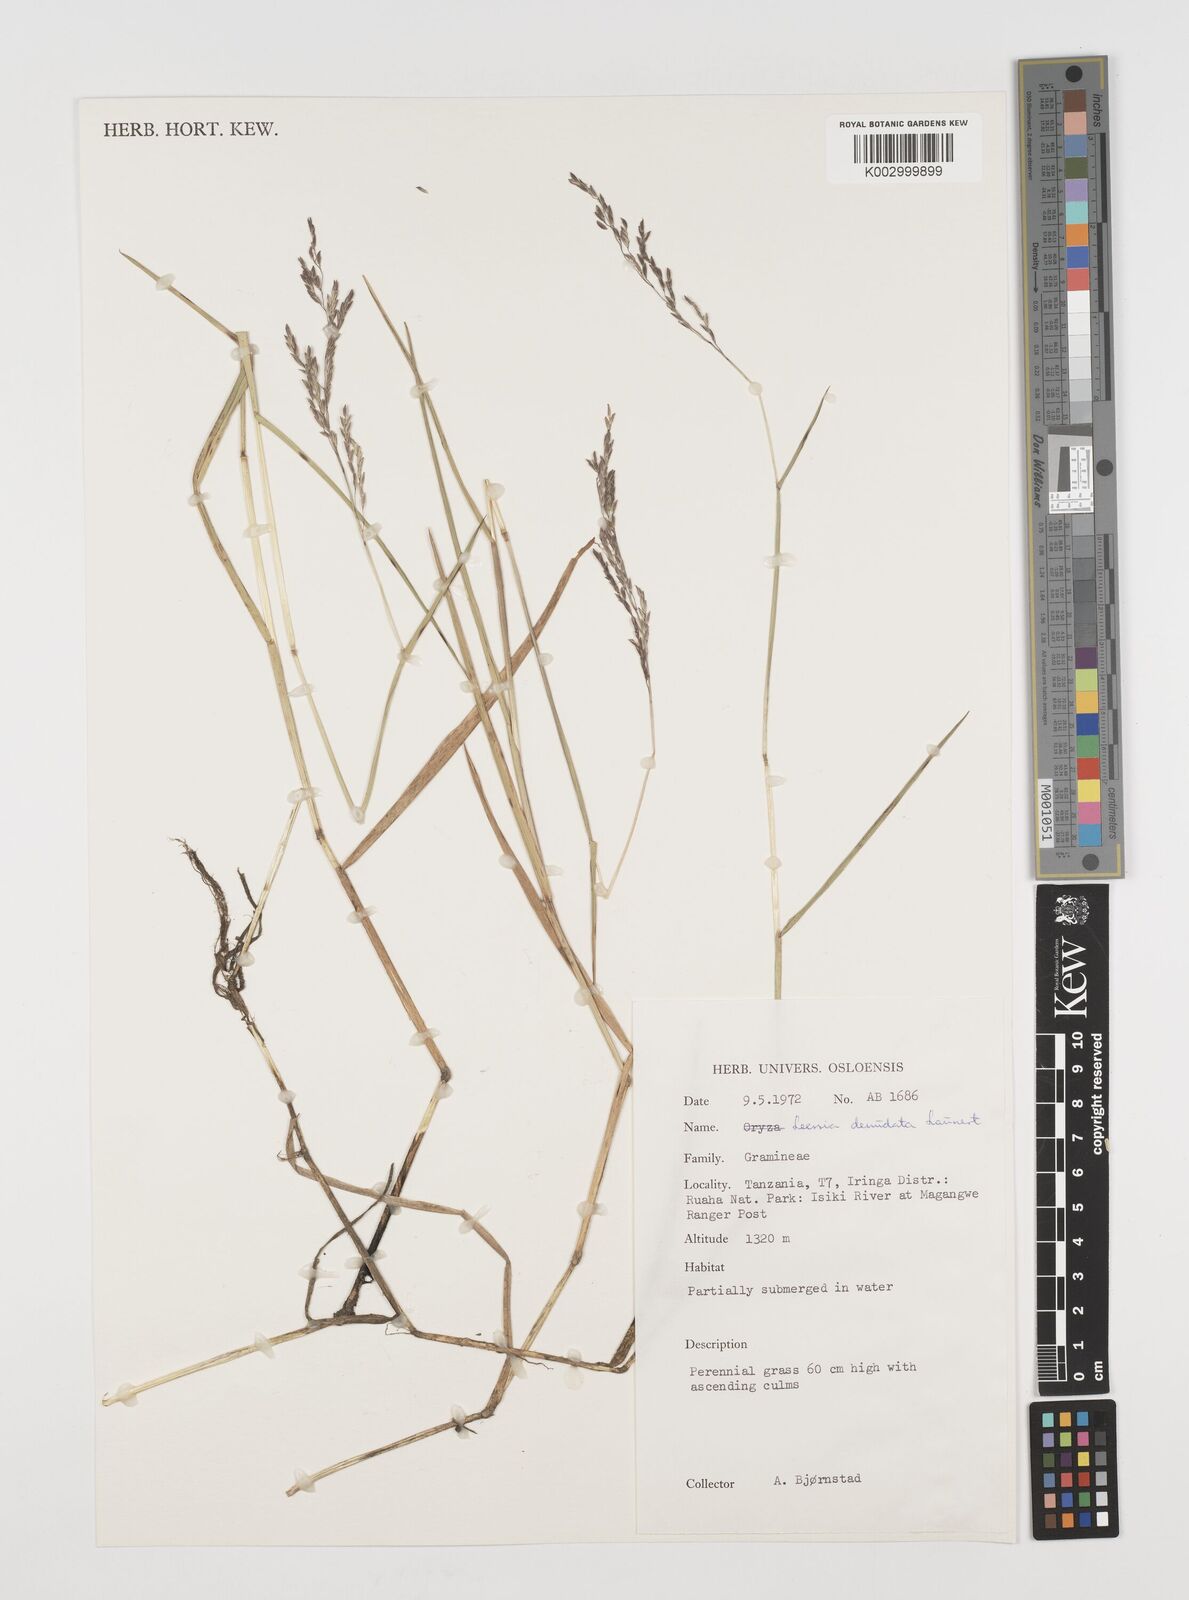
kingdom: Plantae
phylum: Tracheophyta
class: Liliopsida
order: Poales
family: Poaceae
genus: Leersia
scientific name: Leersia denudata
